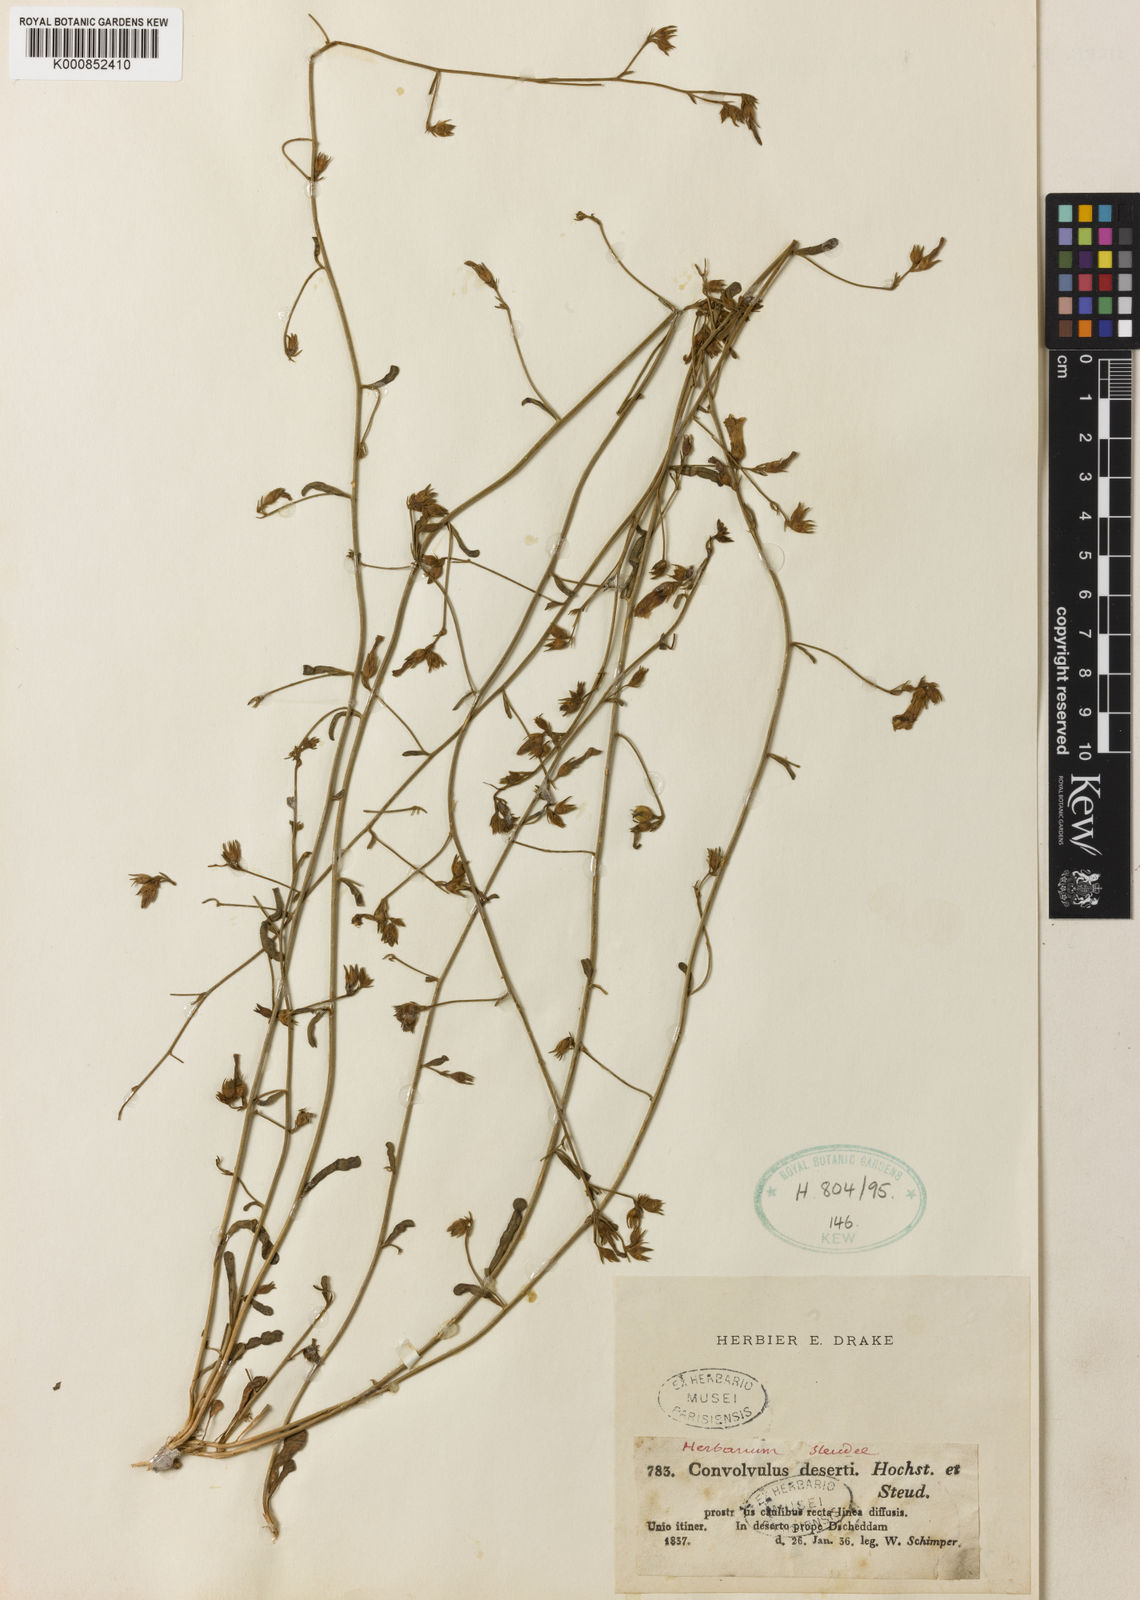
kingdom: Plantae
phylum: Tracheophyta
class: Magnoliopsida
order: Solanales
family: Convolvulaceae
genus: Convolvulus
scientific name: Convolvulus
